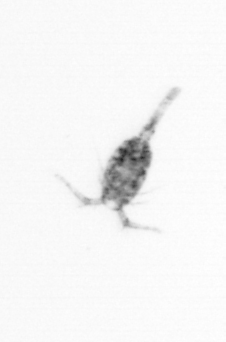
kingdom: Animalia
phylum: Arthropoda
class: Copepoda
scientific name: Copepoda
